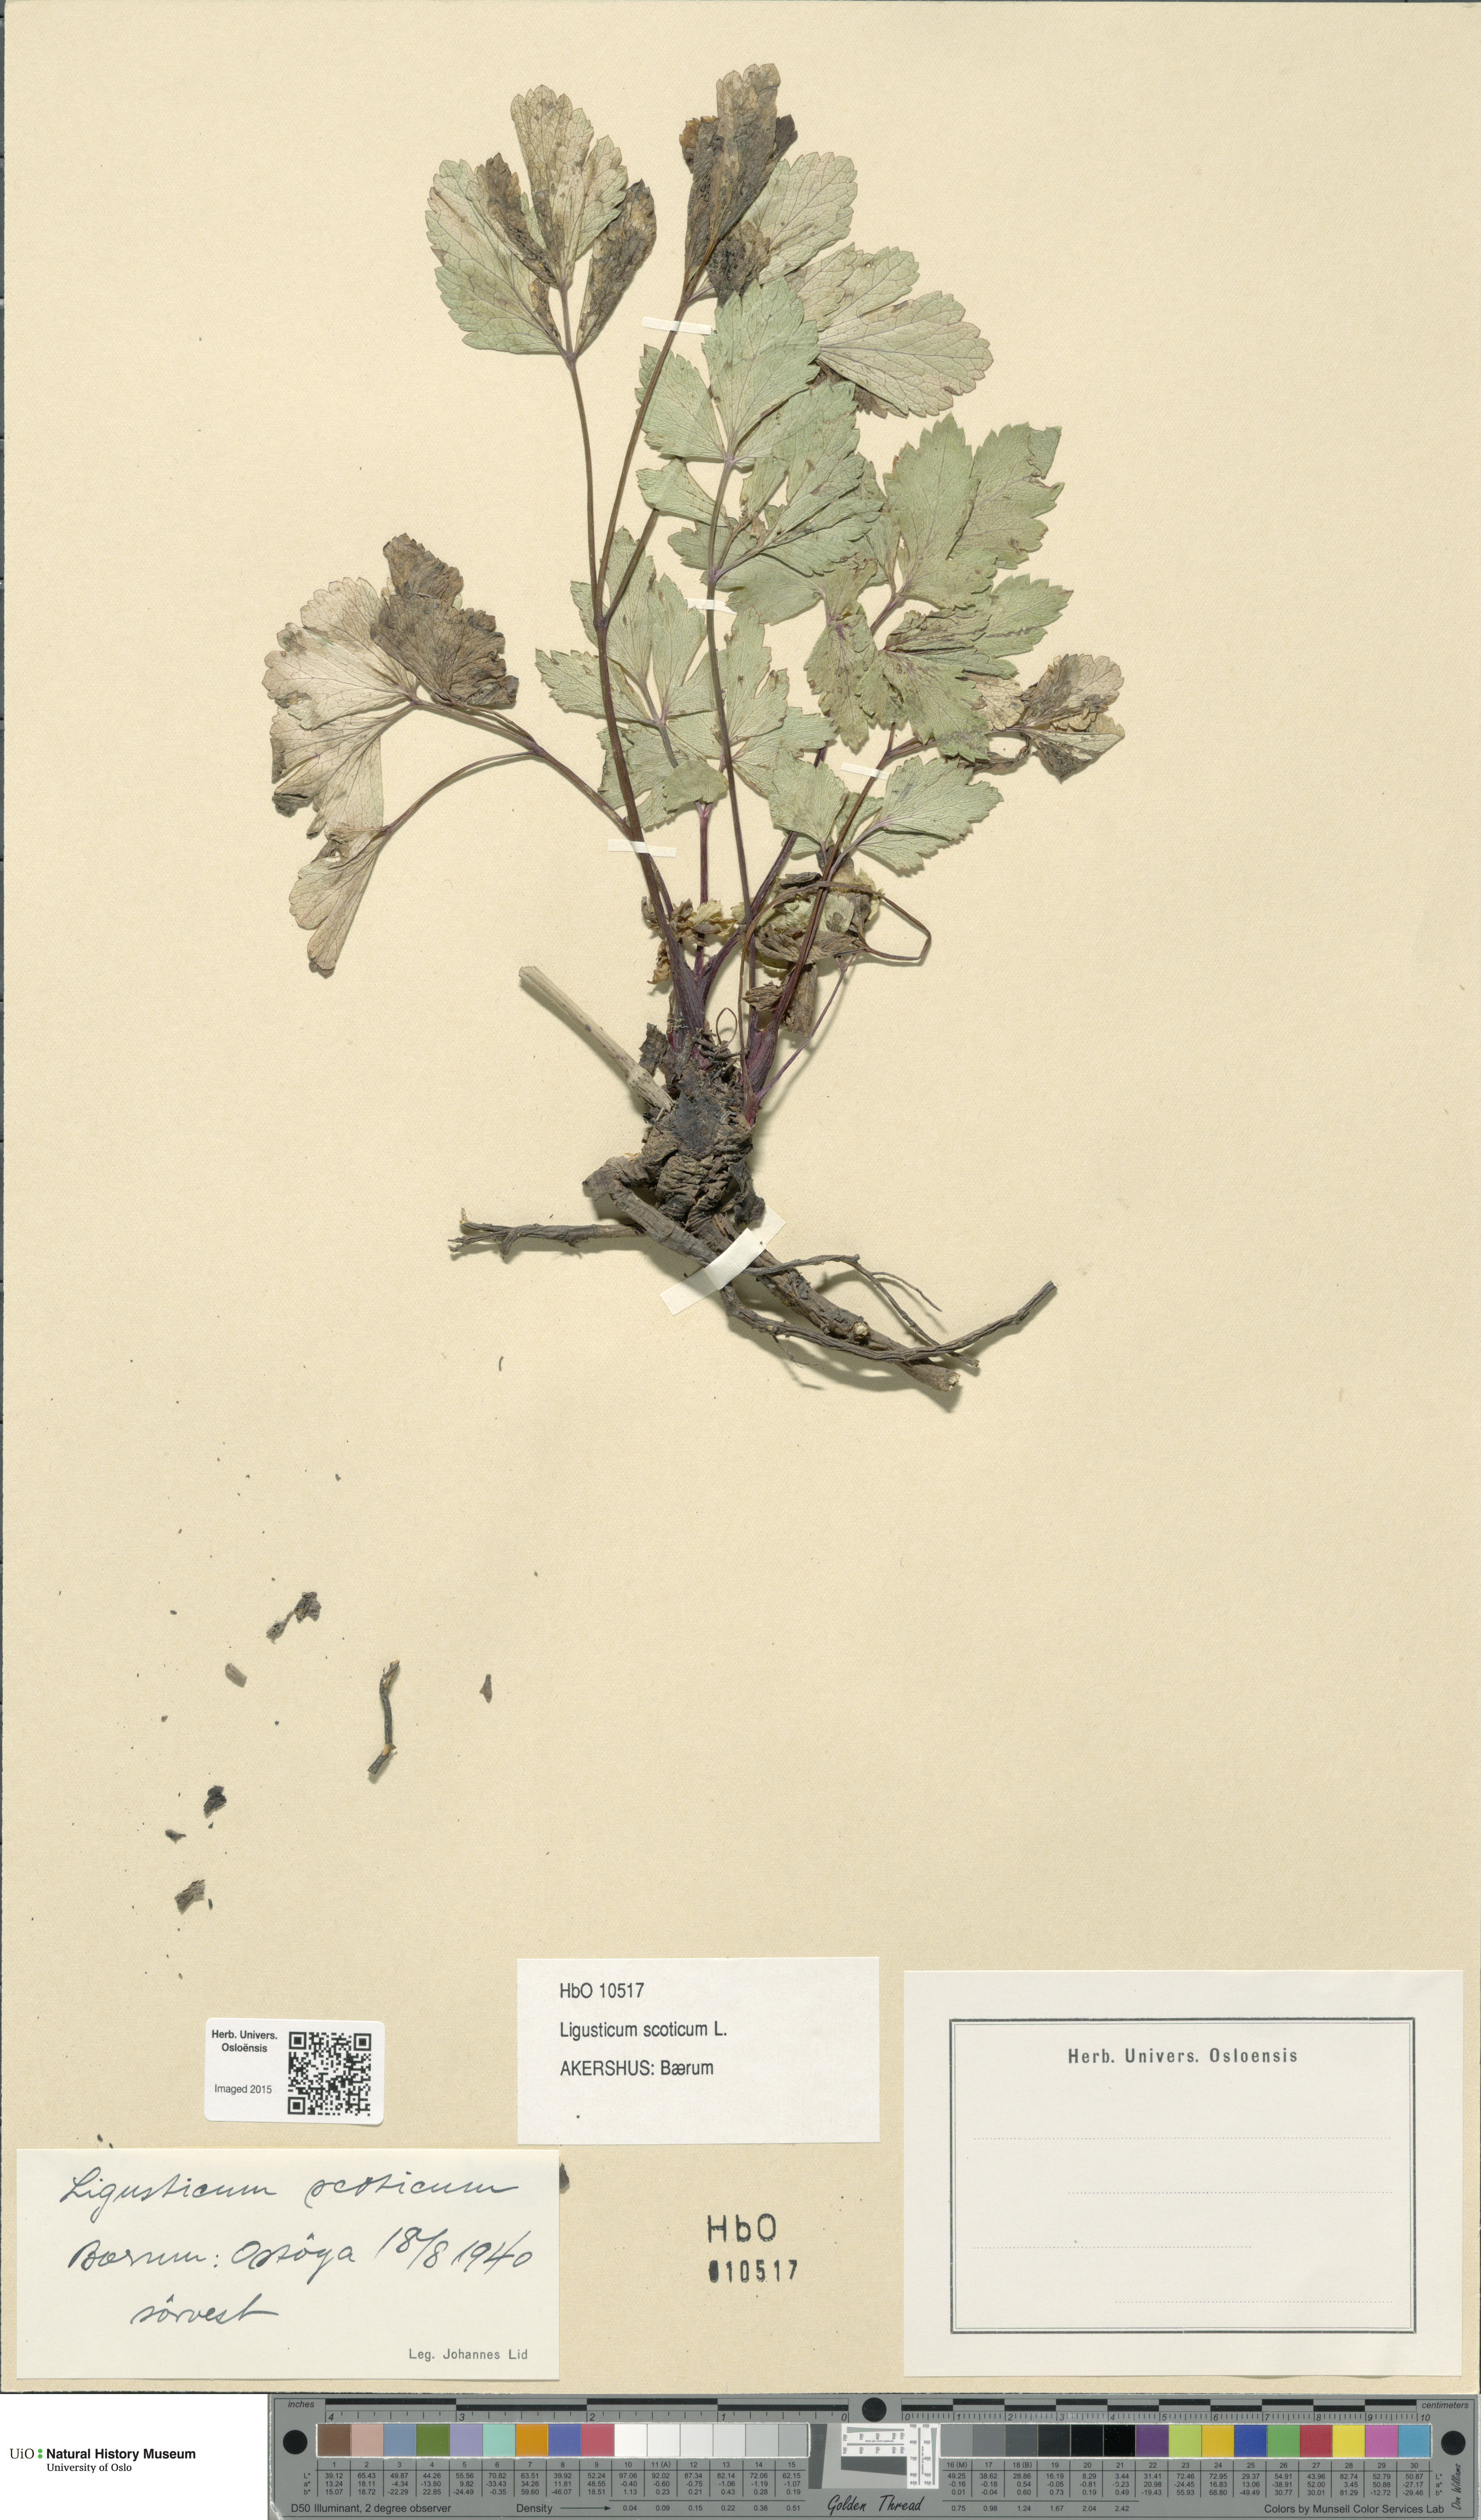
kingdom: Plantae
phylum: Tracheophyta
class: Magnoliopsida
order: Apiales
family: Apiaceae
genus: Ligusticum
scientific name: Ligusticum scothicum
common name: Beach lovage
